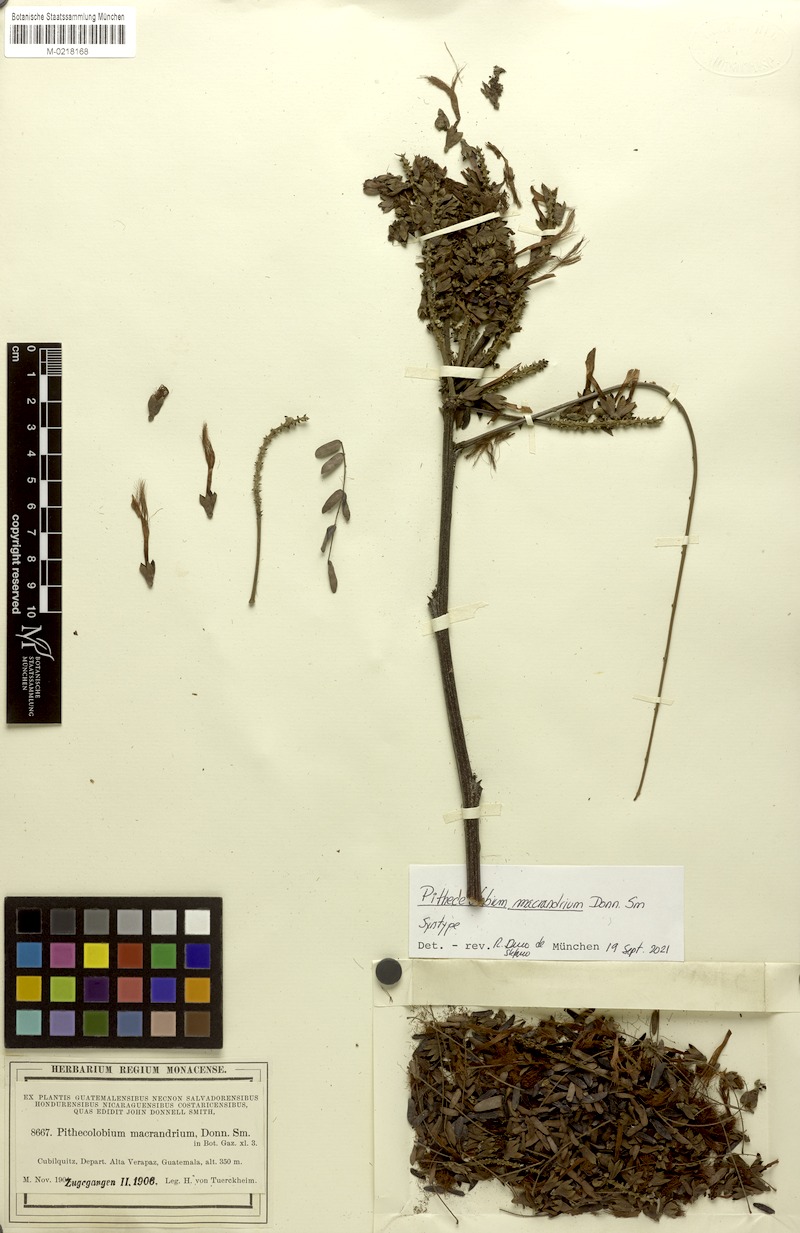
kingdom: Plantae
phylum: Tracheophyta
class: Magnoliopsida
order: Fabales
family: Fabaceae
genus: Pithecellobium
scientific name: Pithecellobium macrandrium
